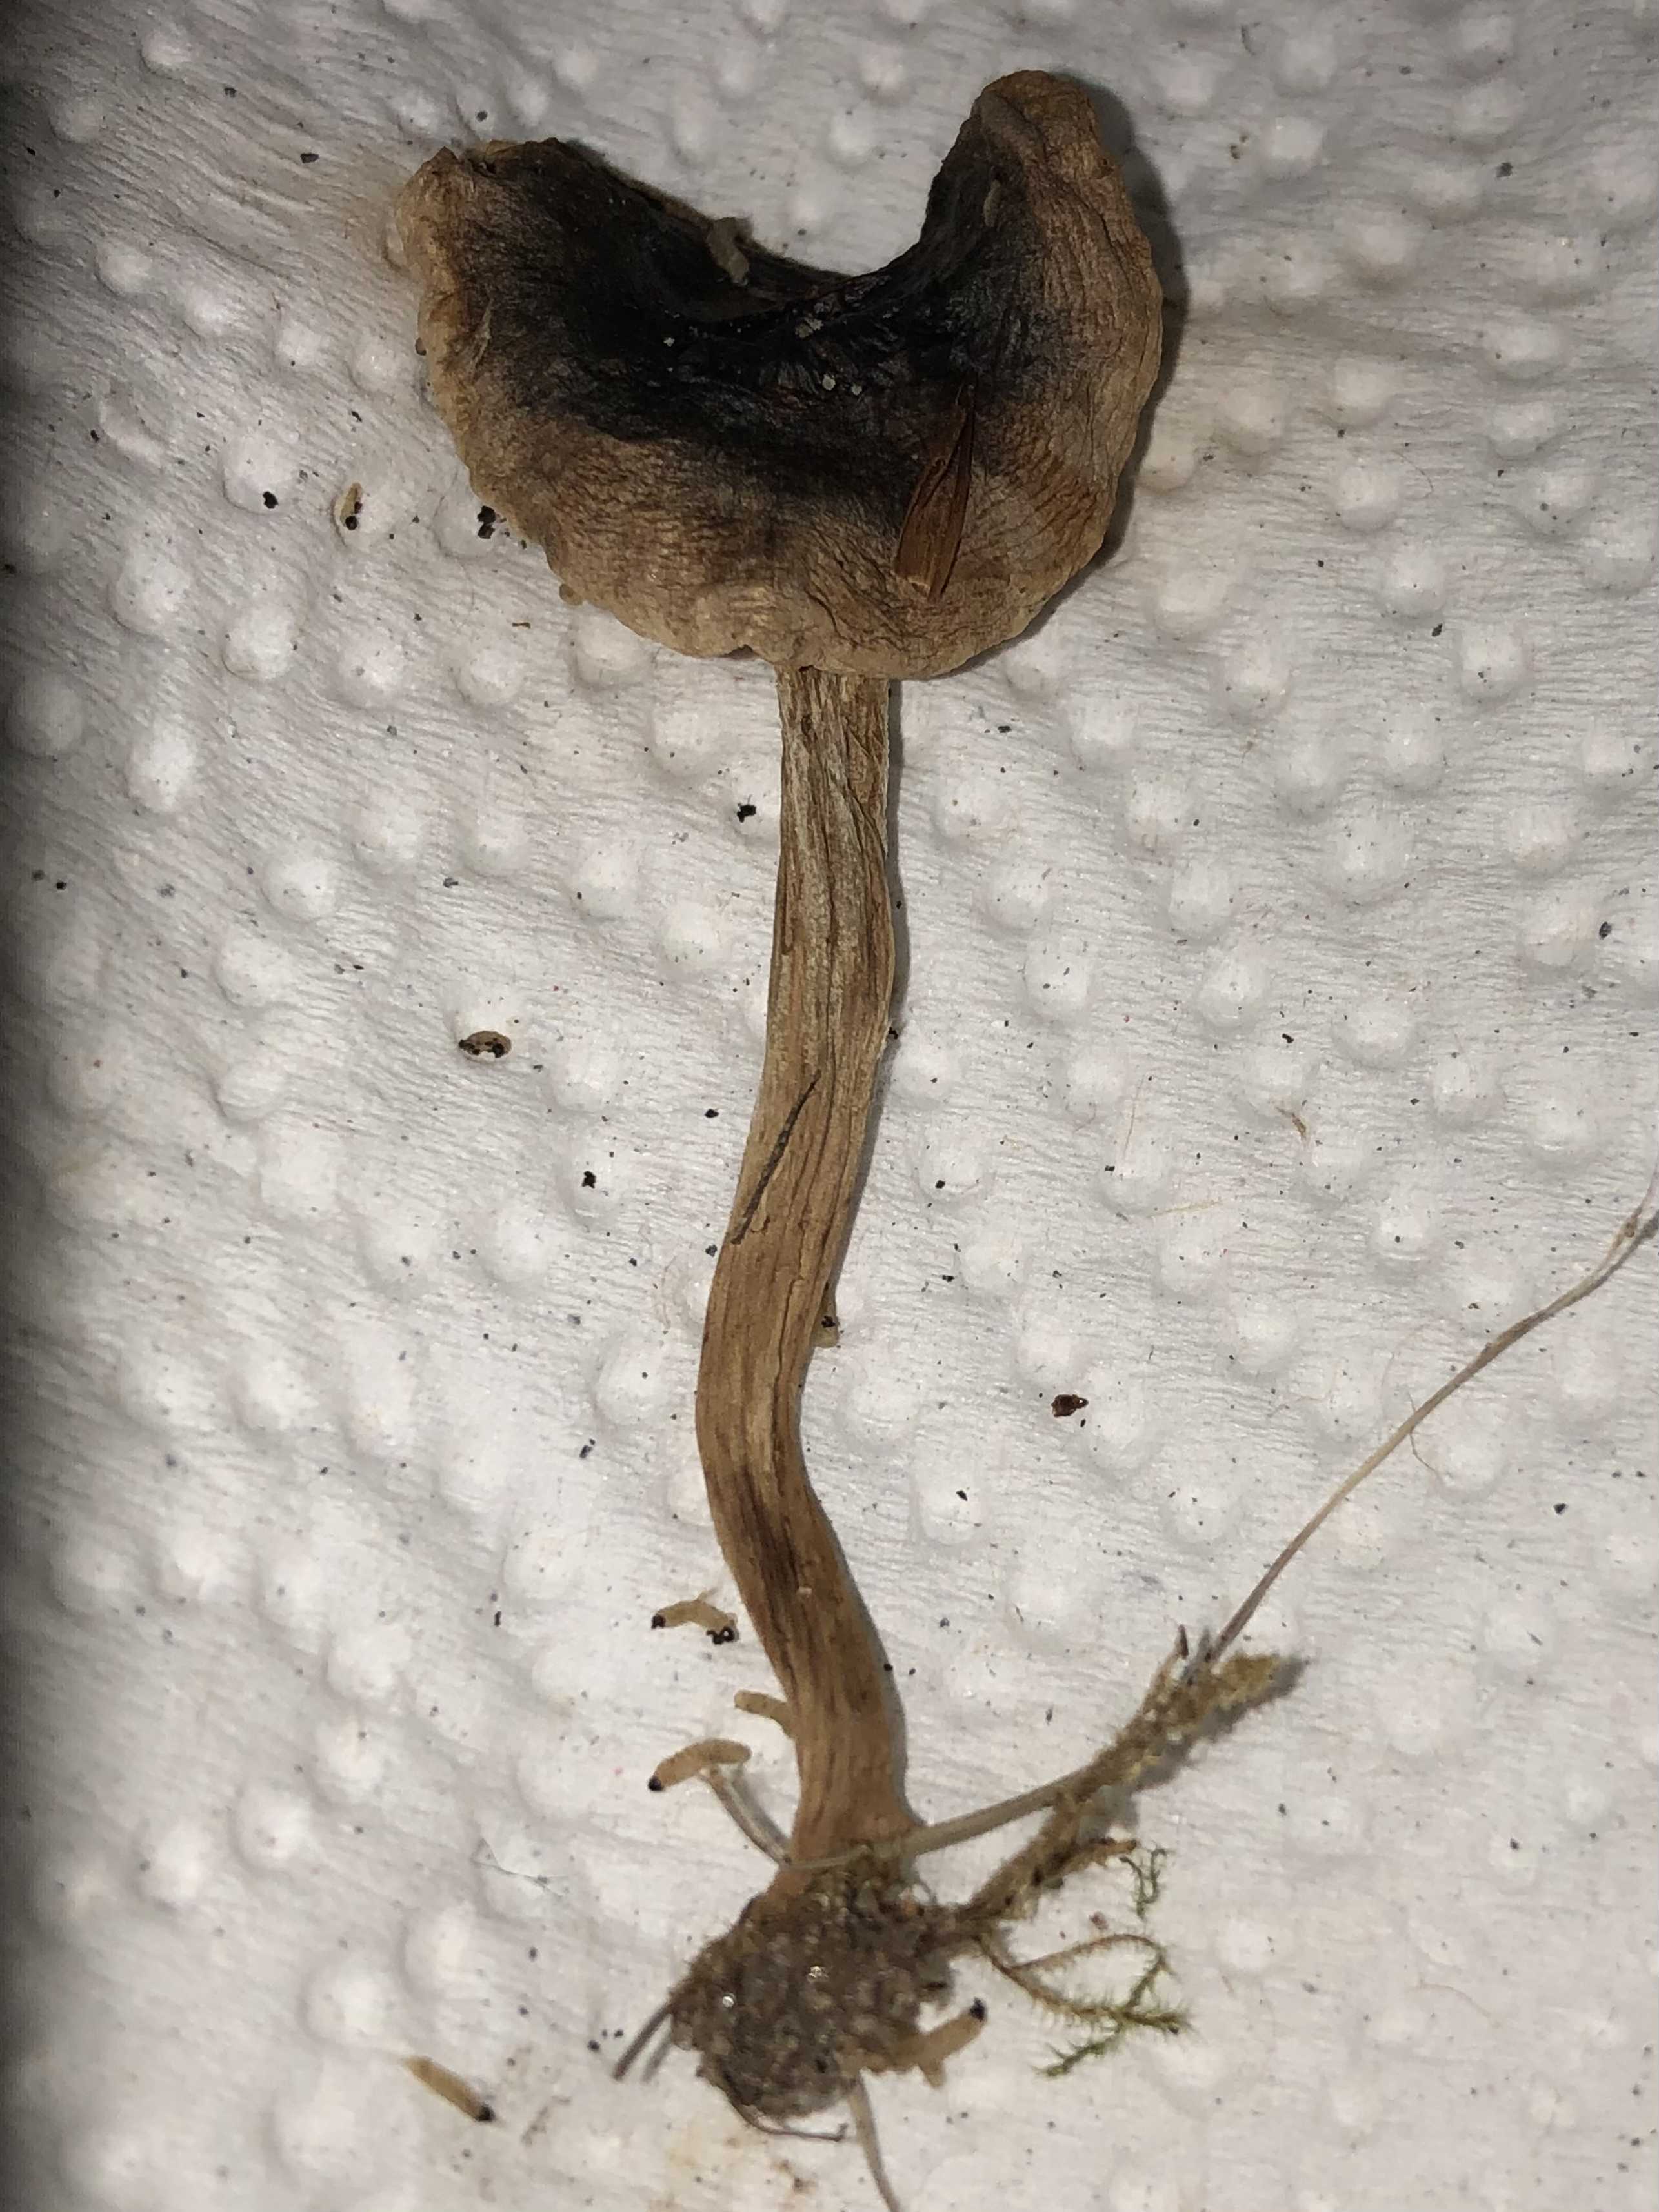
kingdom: Fungi
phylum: Basidiomycota
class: Agaricomycetes
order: Agaricales
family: Hymenogastraceae
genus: Hebeloma
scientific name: Hebeloma mesophaeum
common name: lerbrun tåreblad
